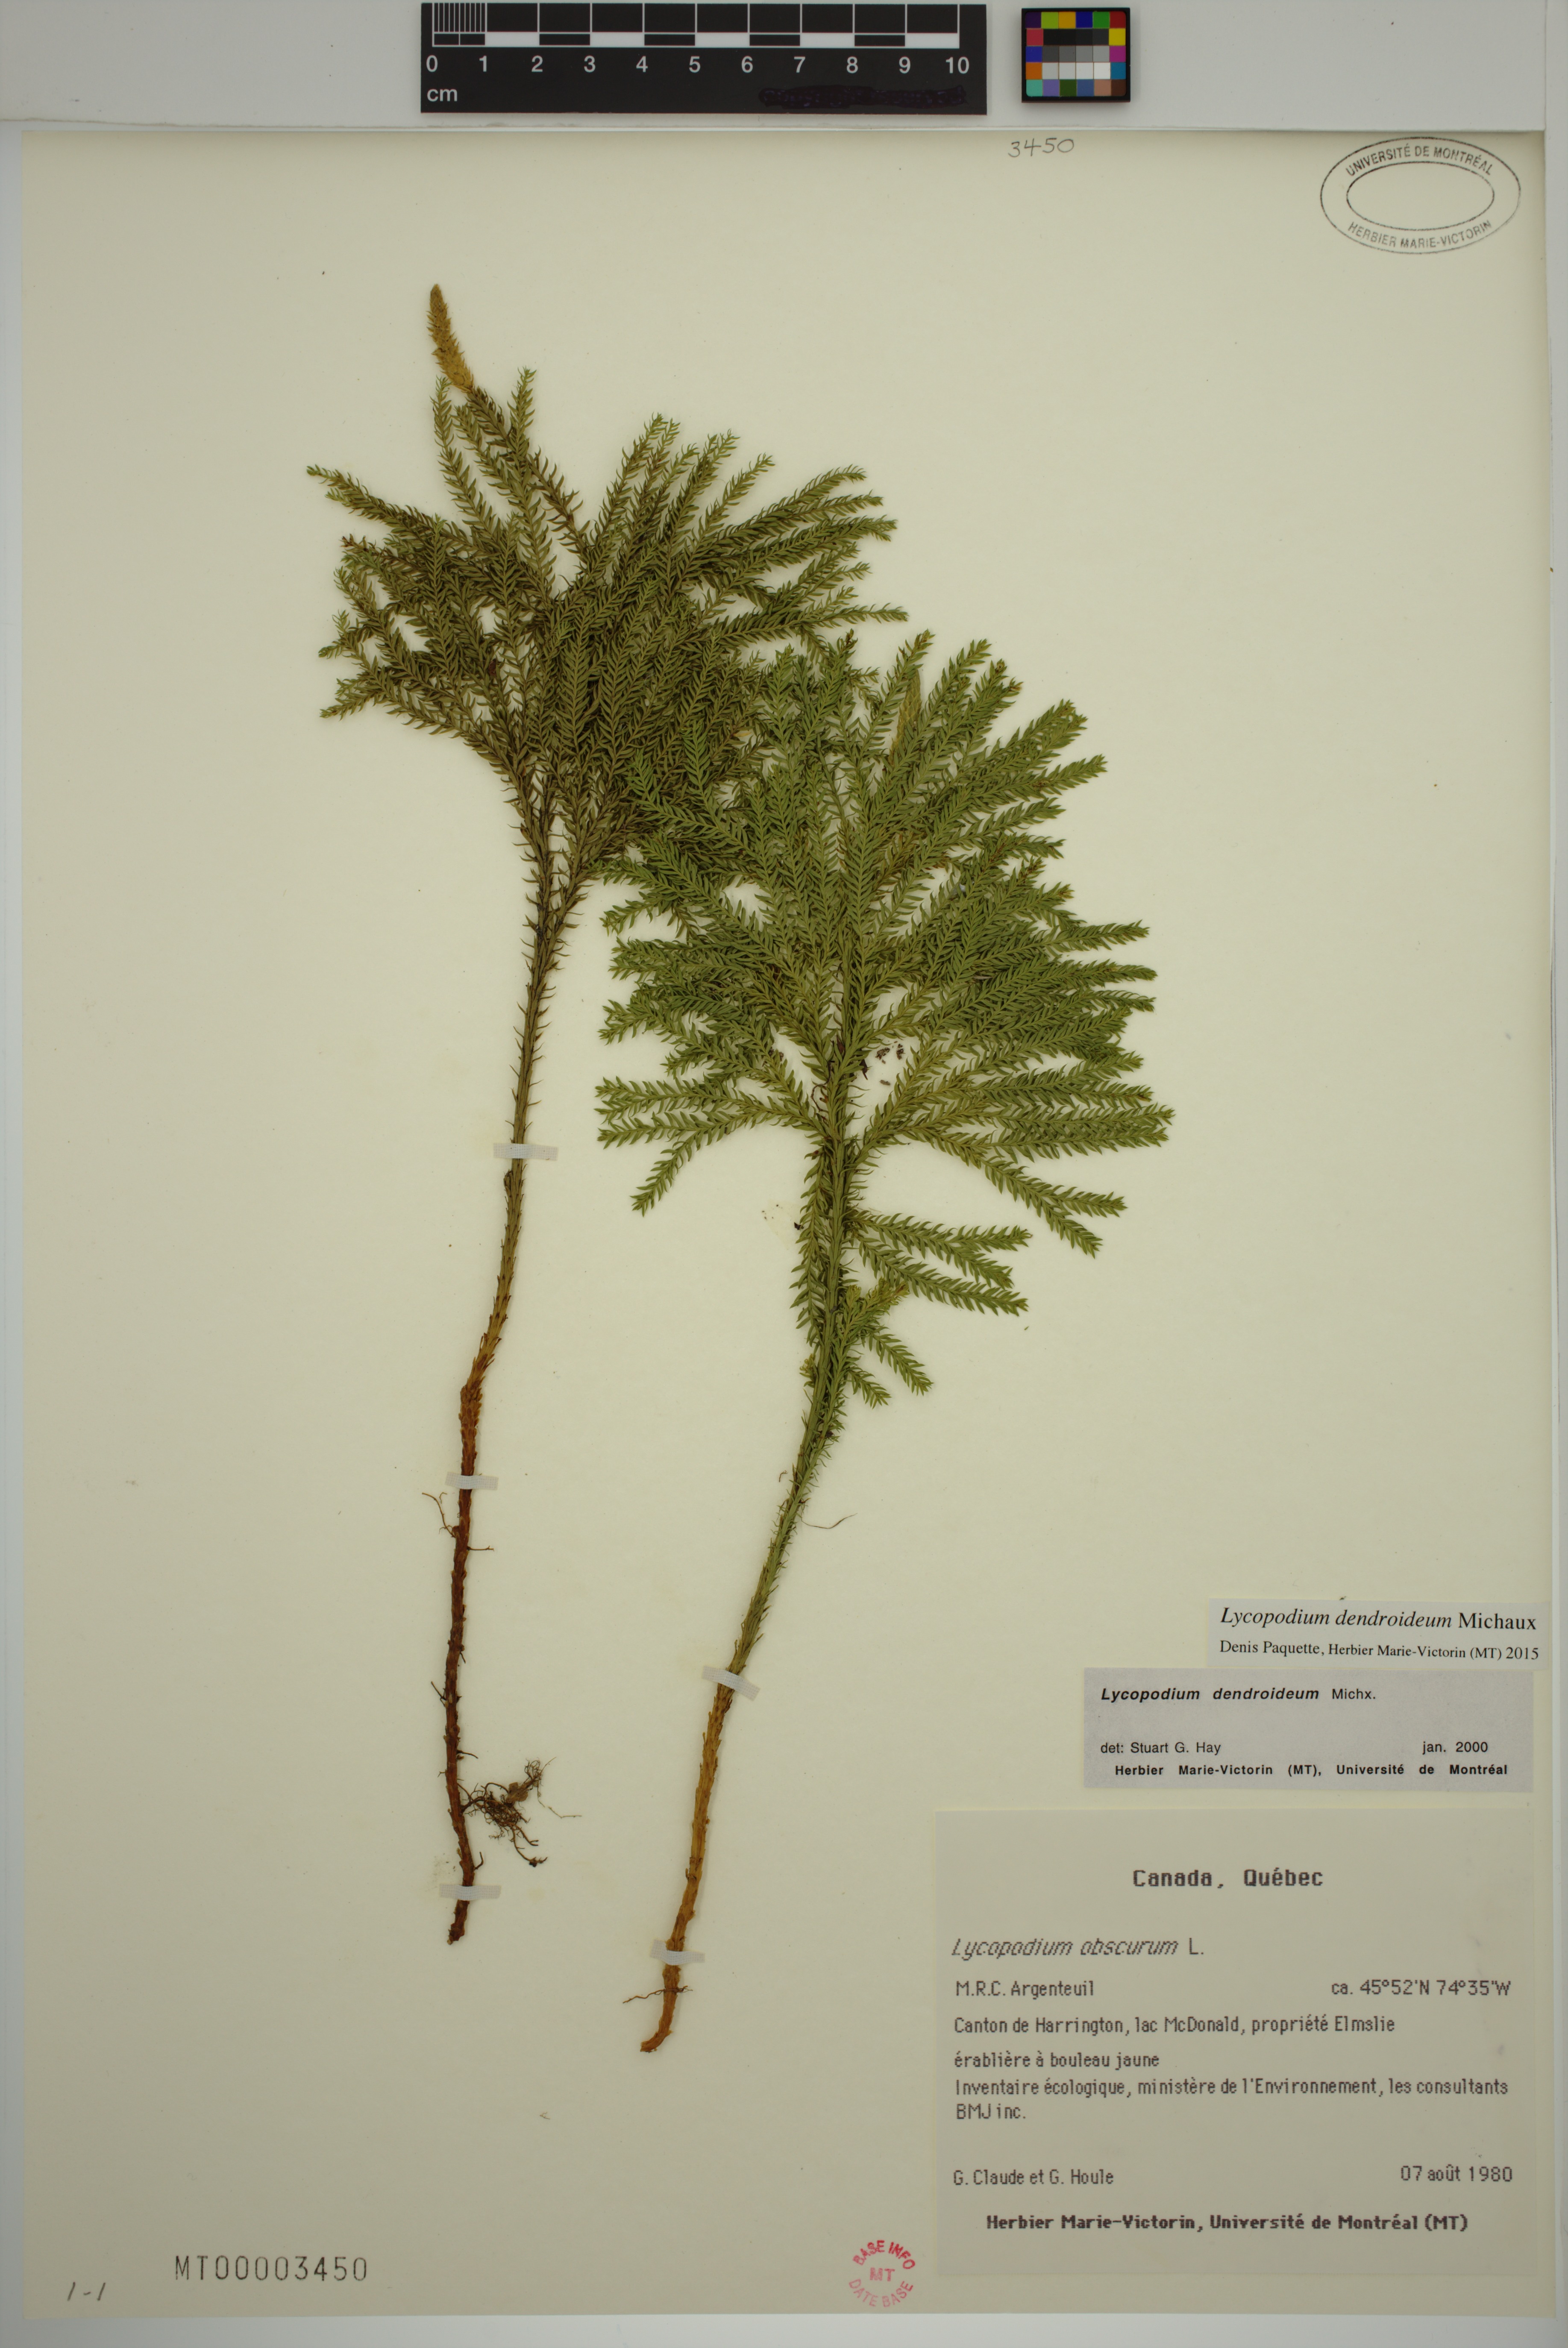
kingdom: Plantae
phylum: Tracheophyta
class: Lycopodiopsida
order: Lycopodiales
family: Lycopodiaceae
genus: Dendrolycopodium
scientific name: Dendrolycopodium dendroideum
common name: Northern tree-clubmoss
